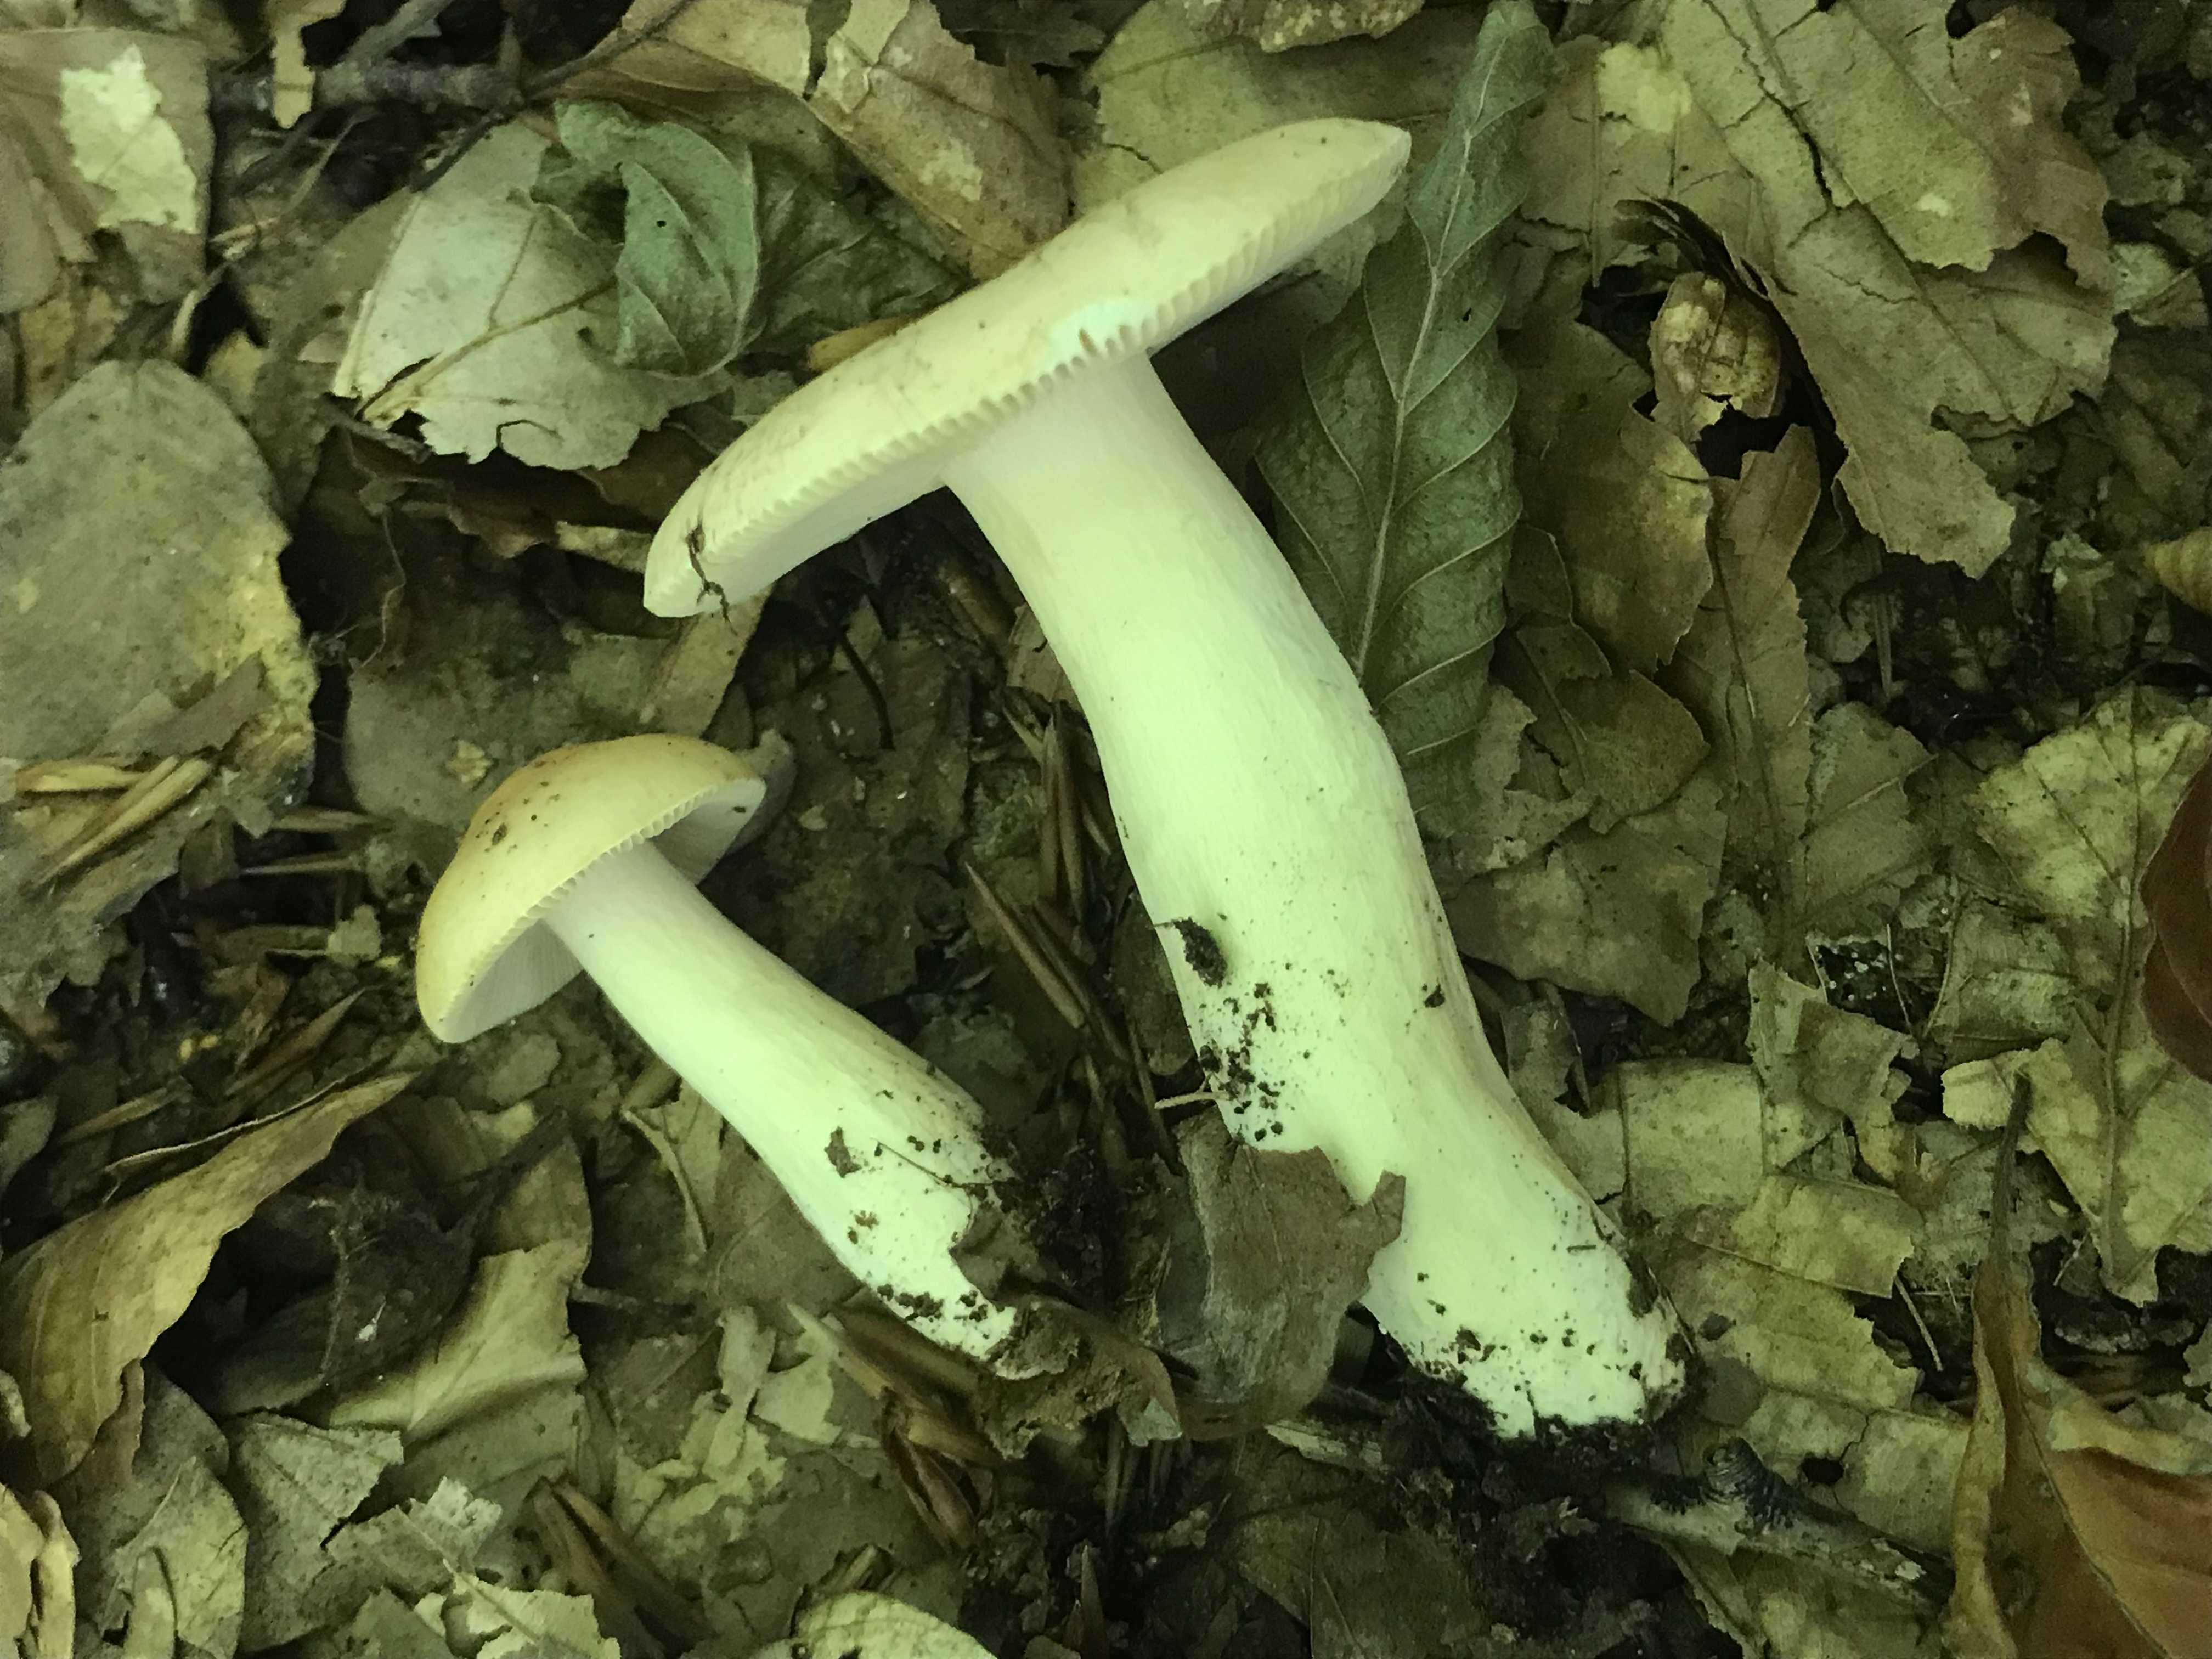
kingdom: Fungi
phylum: Basidiomycota
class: Agaricomycetes
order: Russulales
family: Russulaceae
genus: Russula
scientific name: Russula fellea
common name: galde-skørhat
